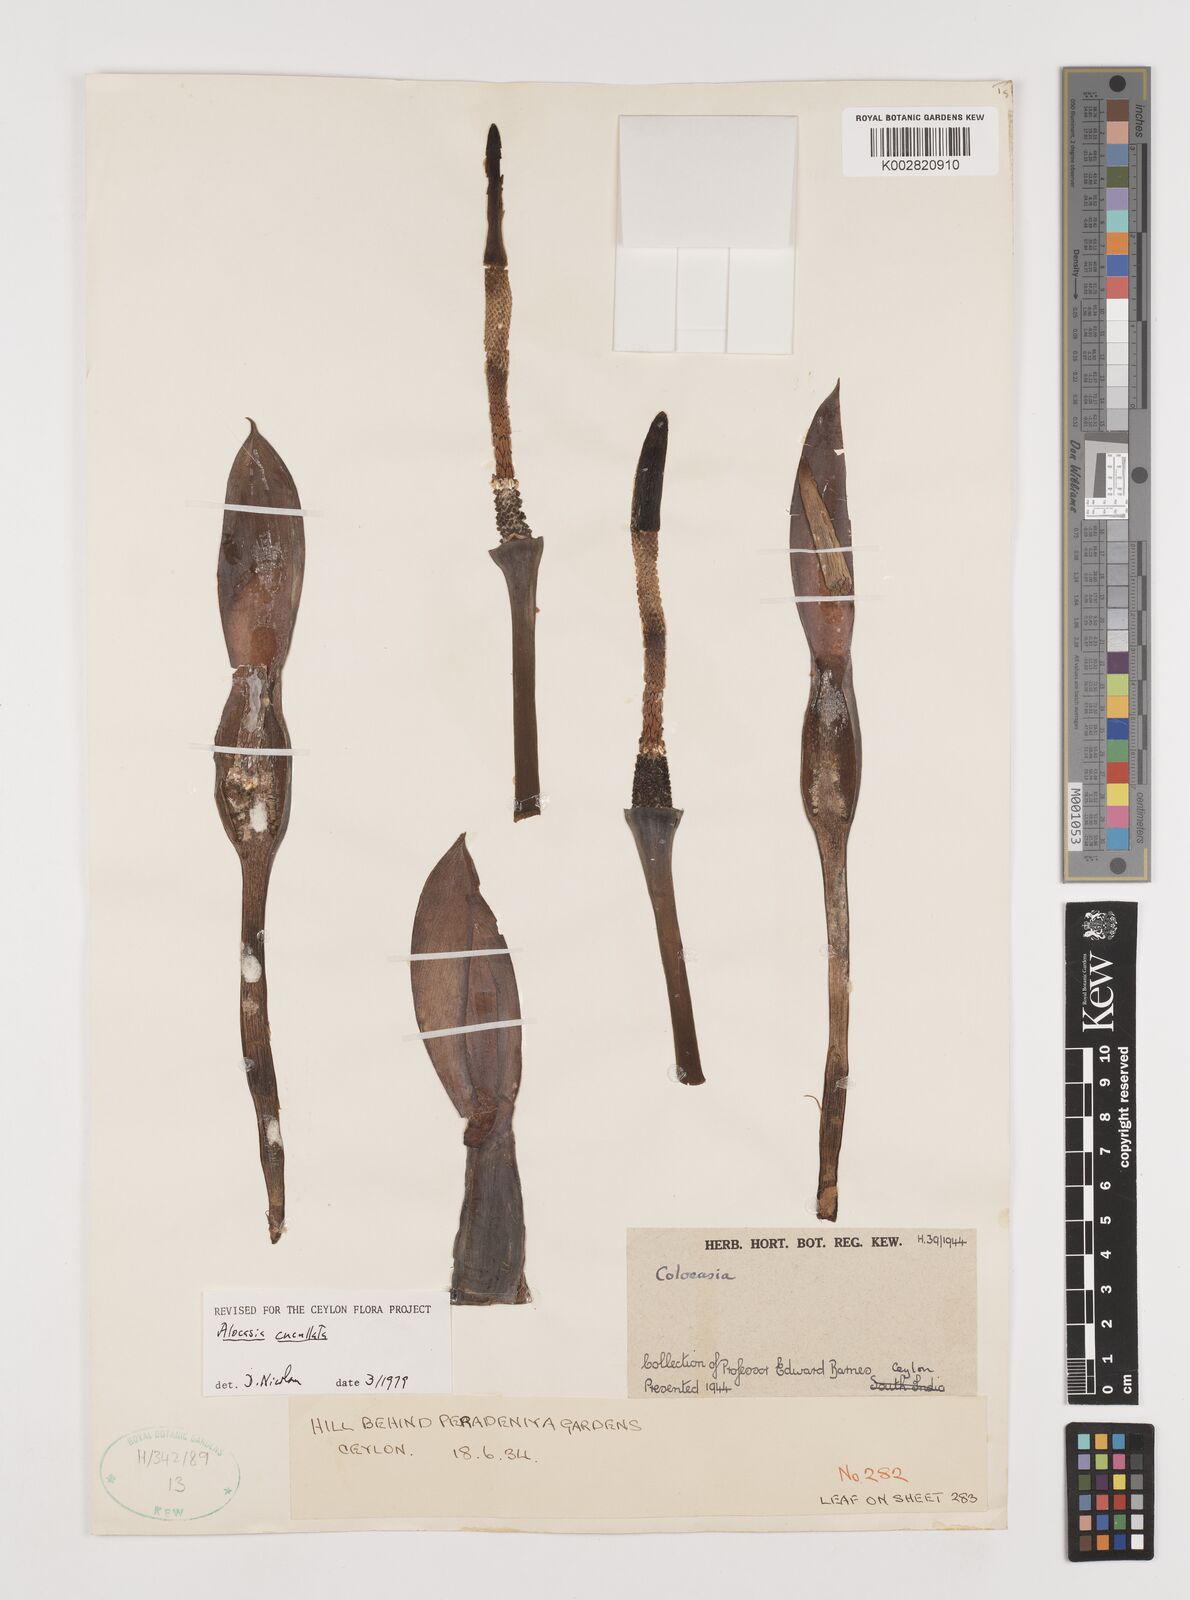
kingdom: Plantae
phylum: Tracheophyta
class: Liliopsida
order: Alismatales
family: Araceae
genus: Alocasia
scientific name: Alocasia cucullata
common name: Buddha's hand
